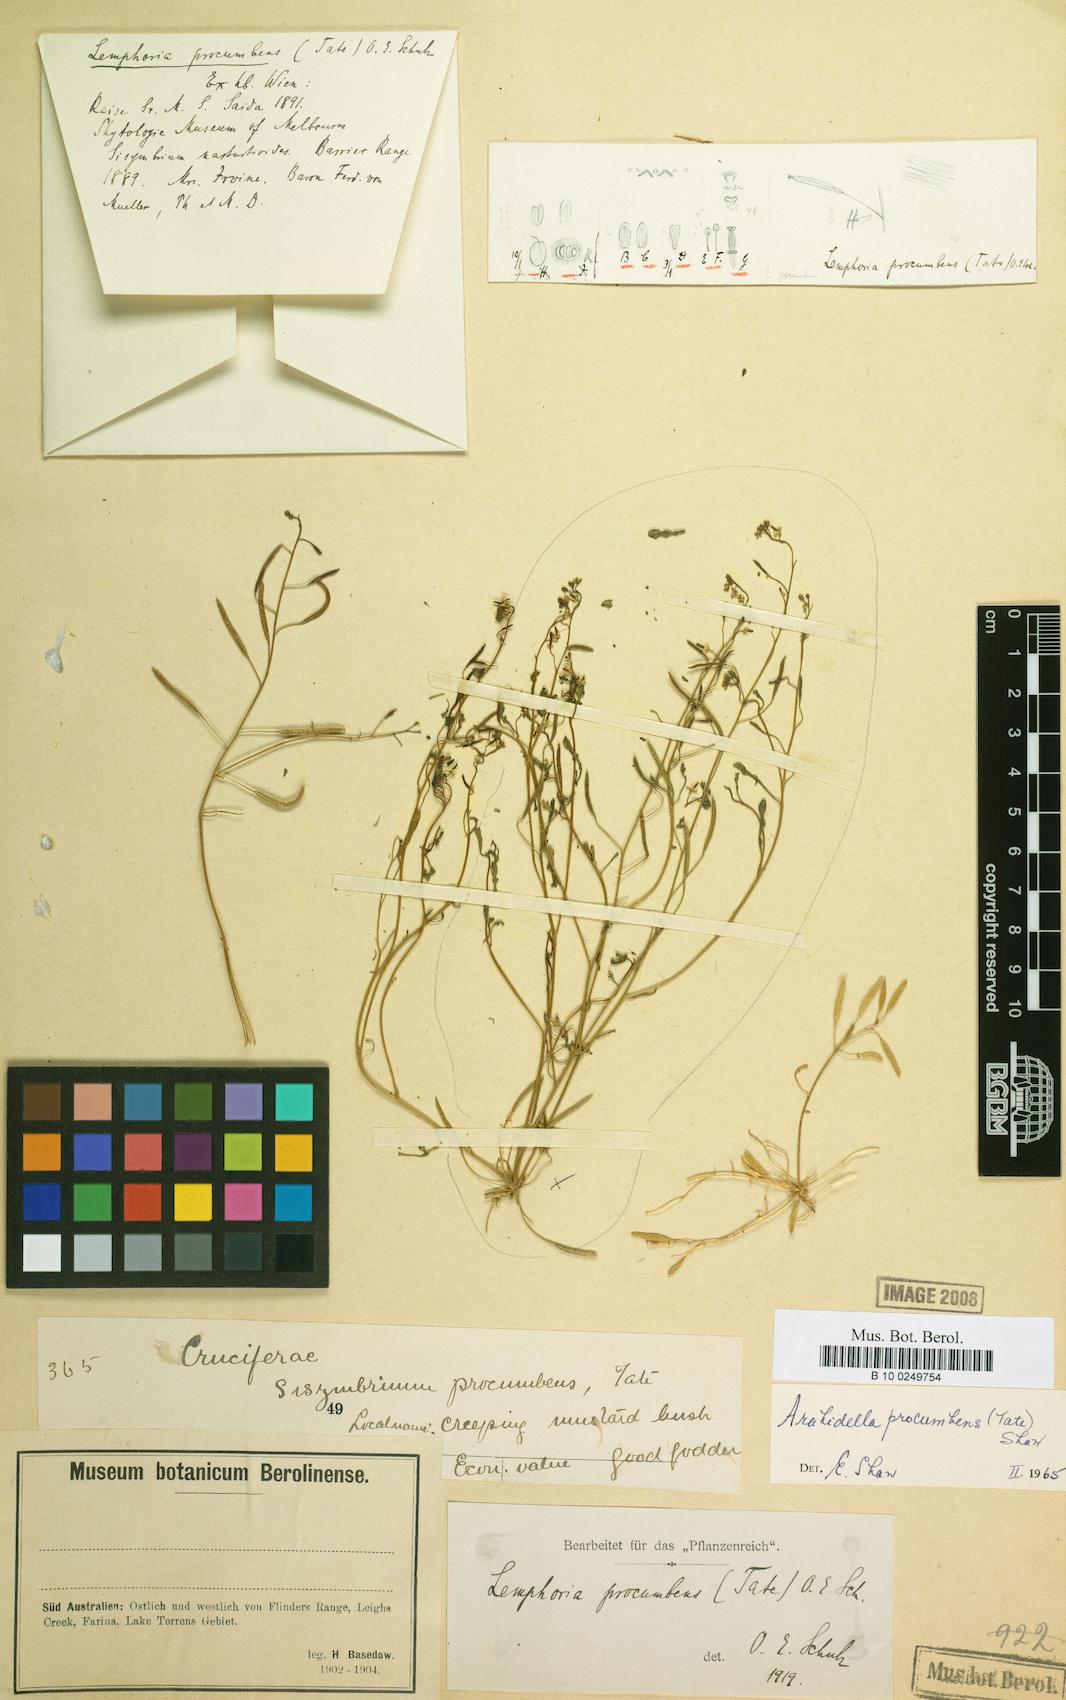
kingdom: Plantae
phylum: Tracheophyta
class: Magnoliopsida
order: Brassicales
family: Brassicaceae
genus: Arabidella
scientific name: Arabidella procumbens
